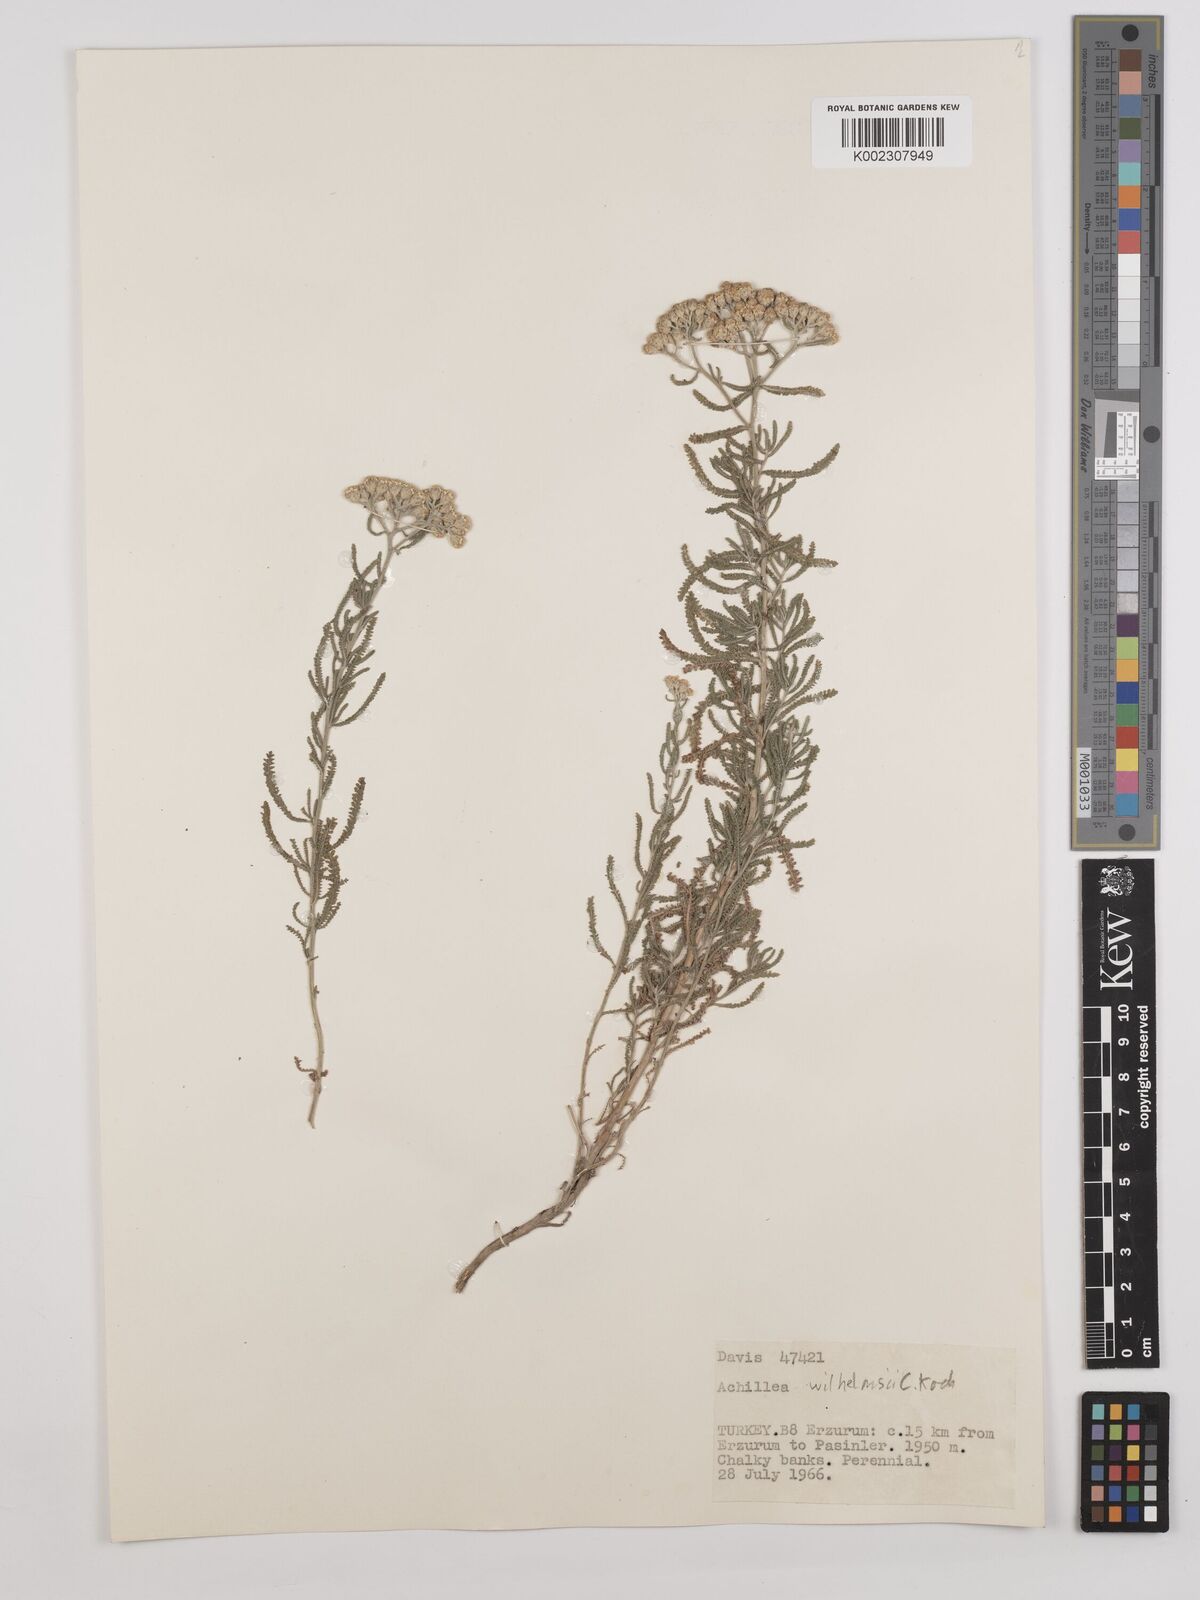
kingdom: Plantae
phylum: Tracheophyta
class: Magnoliopsida
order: Asterales
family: Asteraceae
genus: Achillea
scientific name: Achillea tenuifolia
